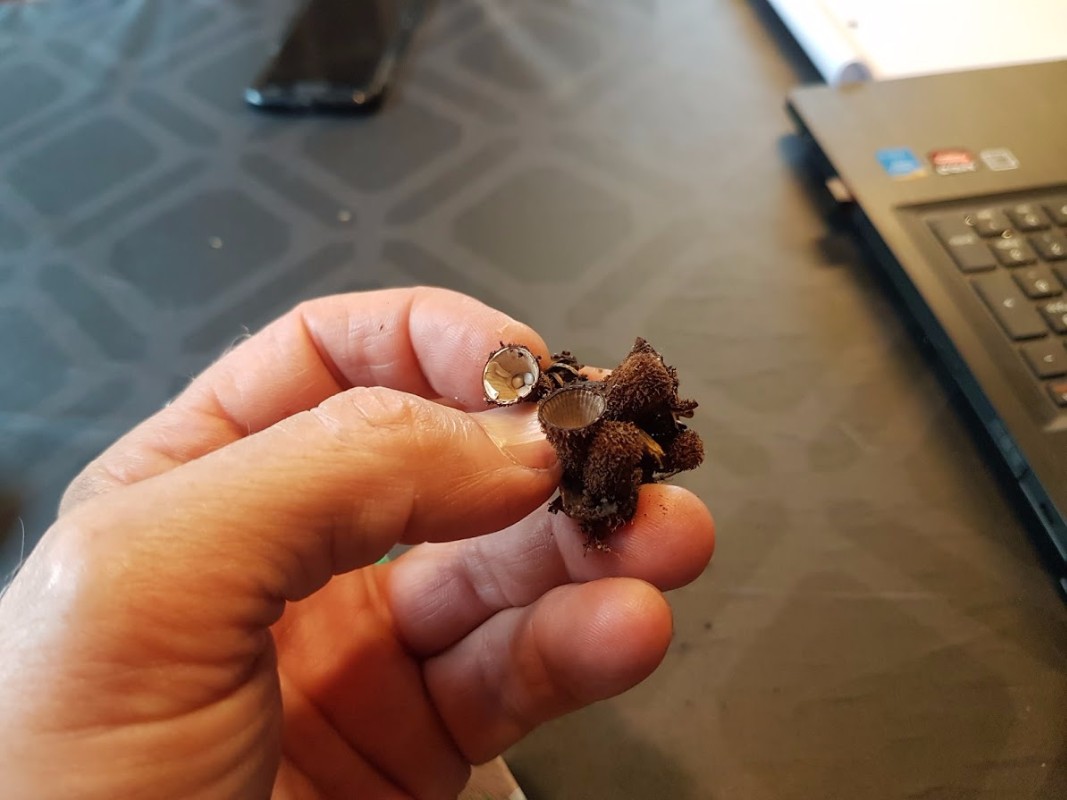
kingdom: Fungi
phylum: Basidiomycota
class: Agaricomycetes
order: Agaricales
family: Agaricaceae
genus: Cyathus
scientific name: Cyathus striatus
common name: stribet redesvamp
